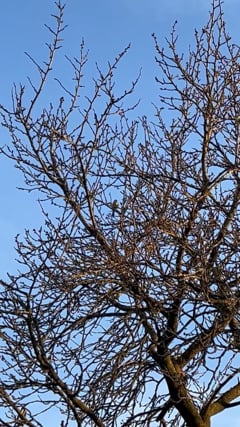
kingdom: Animalia
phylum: Chordata
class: Aves
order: Passeriformes
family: Paridae
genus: Cyanistes
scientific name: Cyanistes caeruleus
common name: Eurasian blue tit
